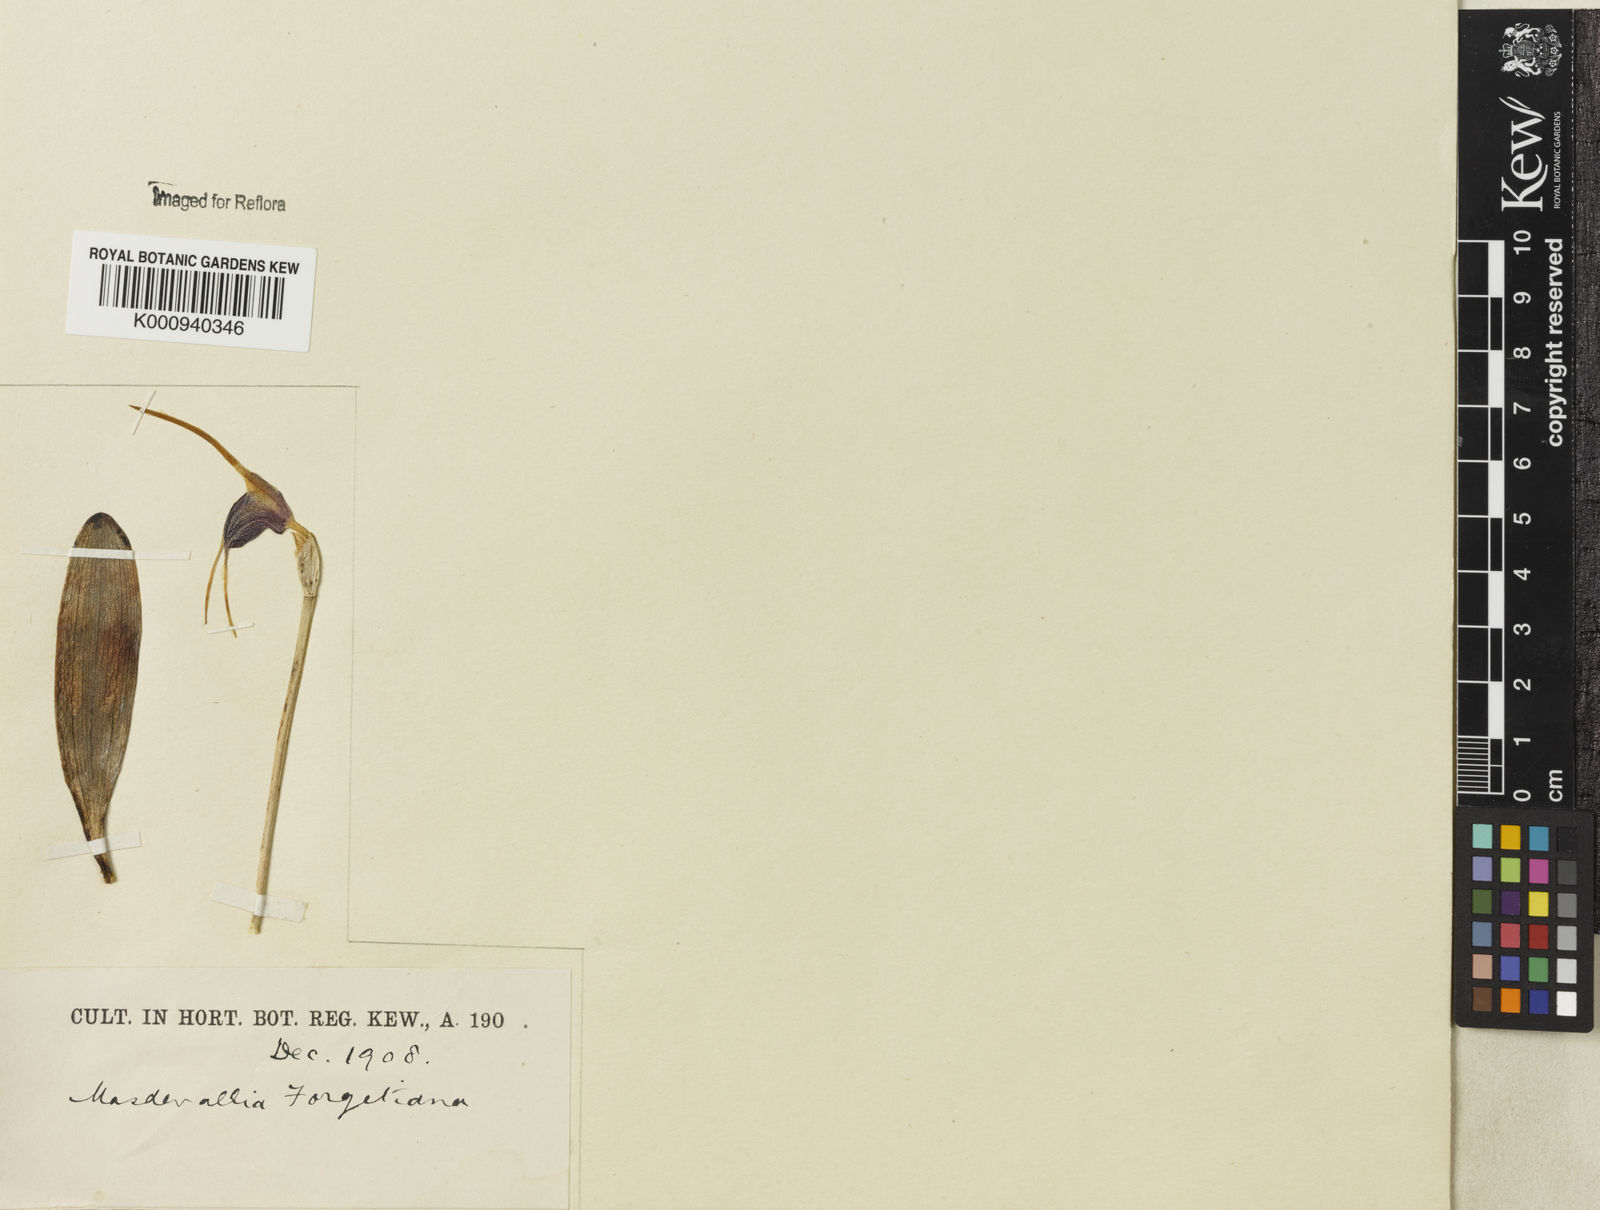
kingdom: Plantae
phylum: Tracheophyta
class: Liliopsida
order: Asparagales
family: Orchidaceae
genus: Masdevallia
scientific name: Masdevallia infracta
